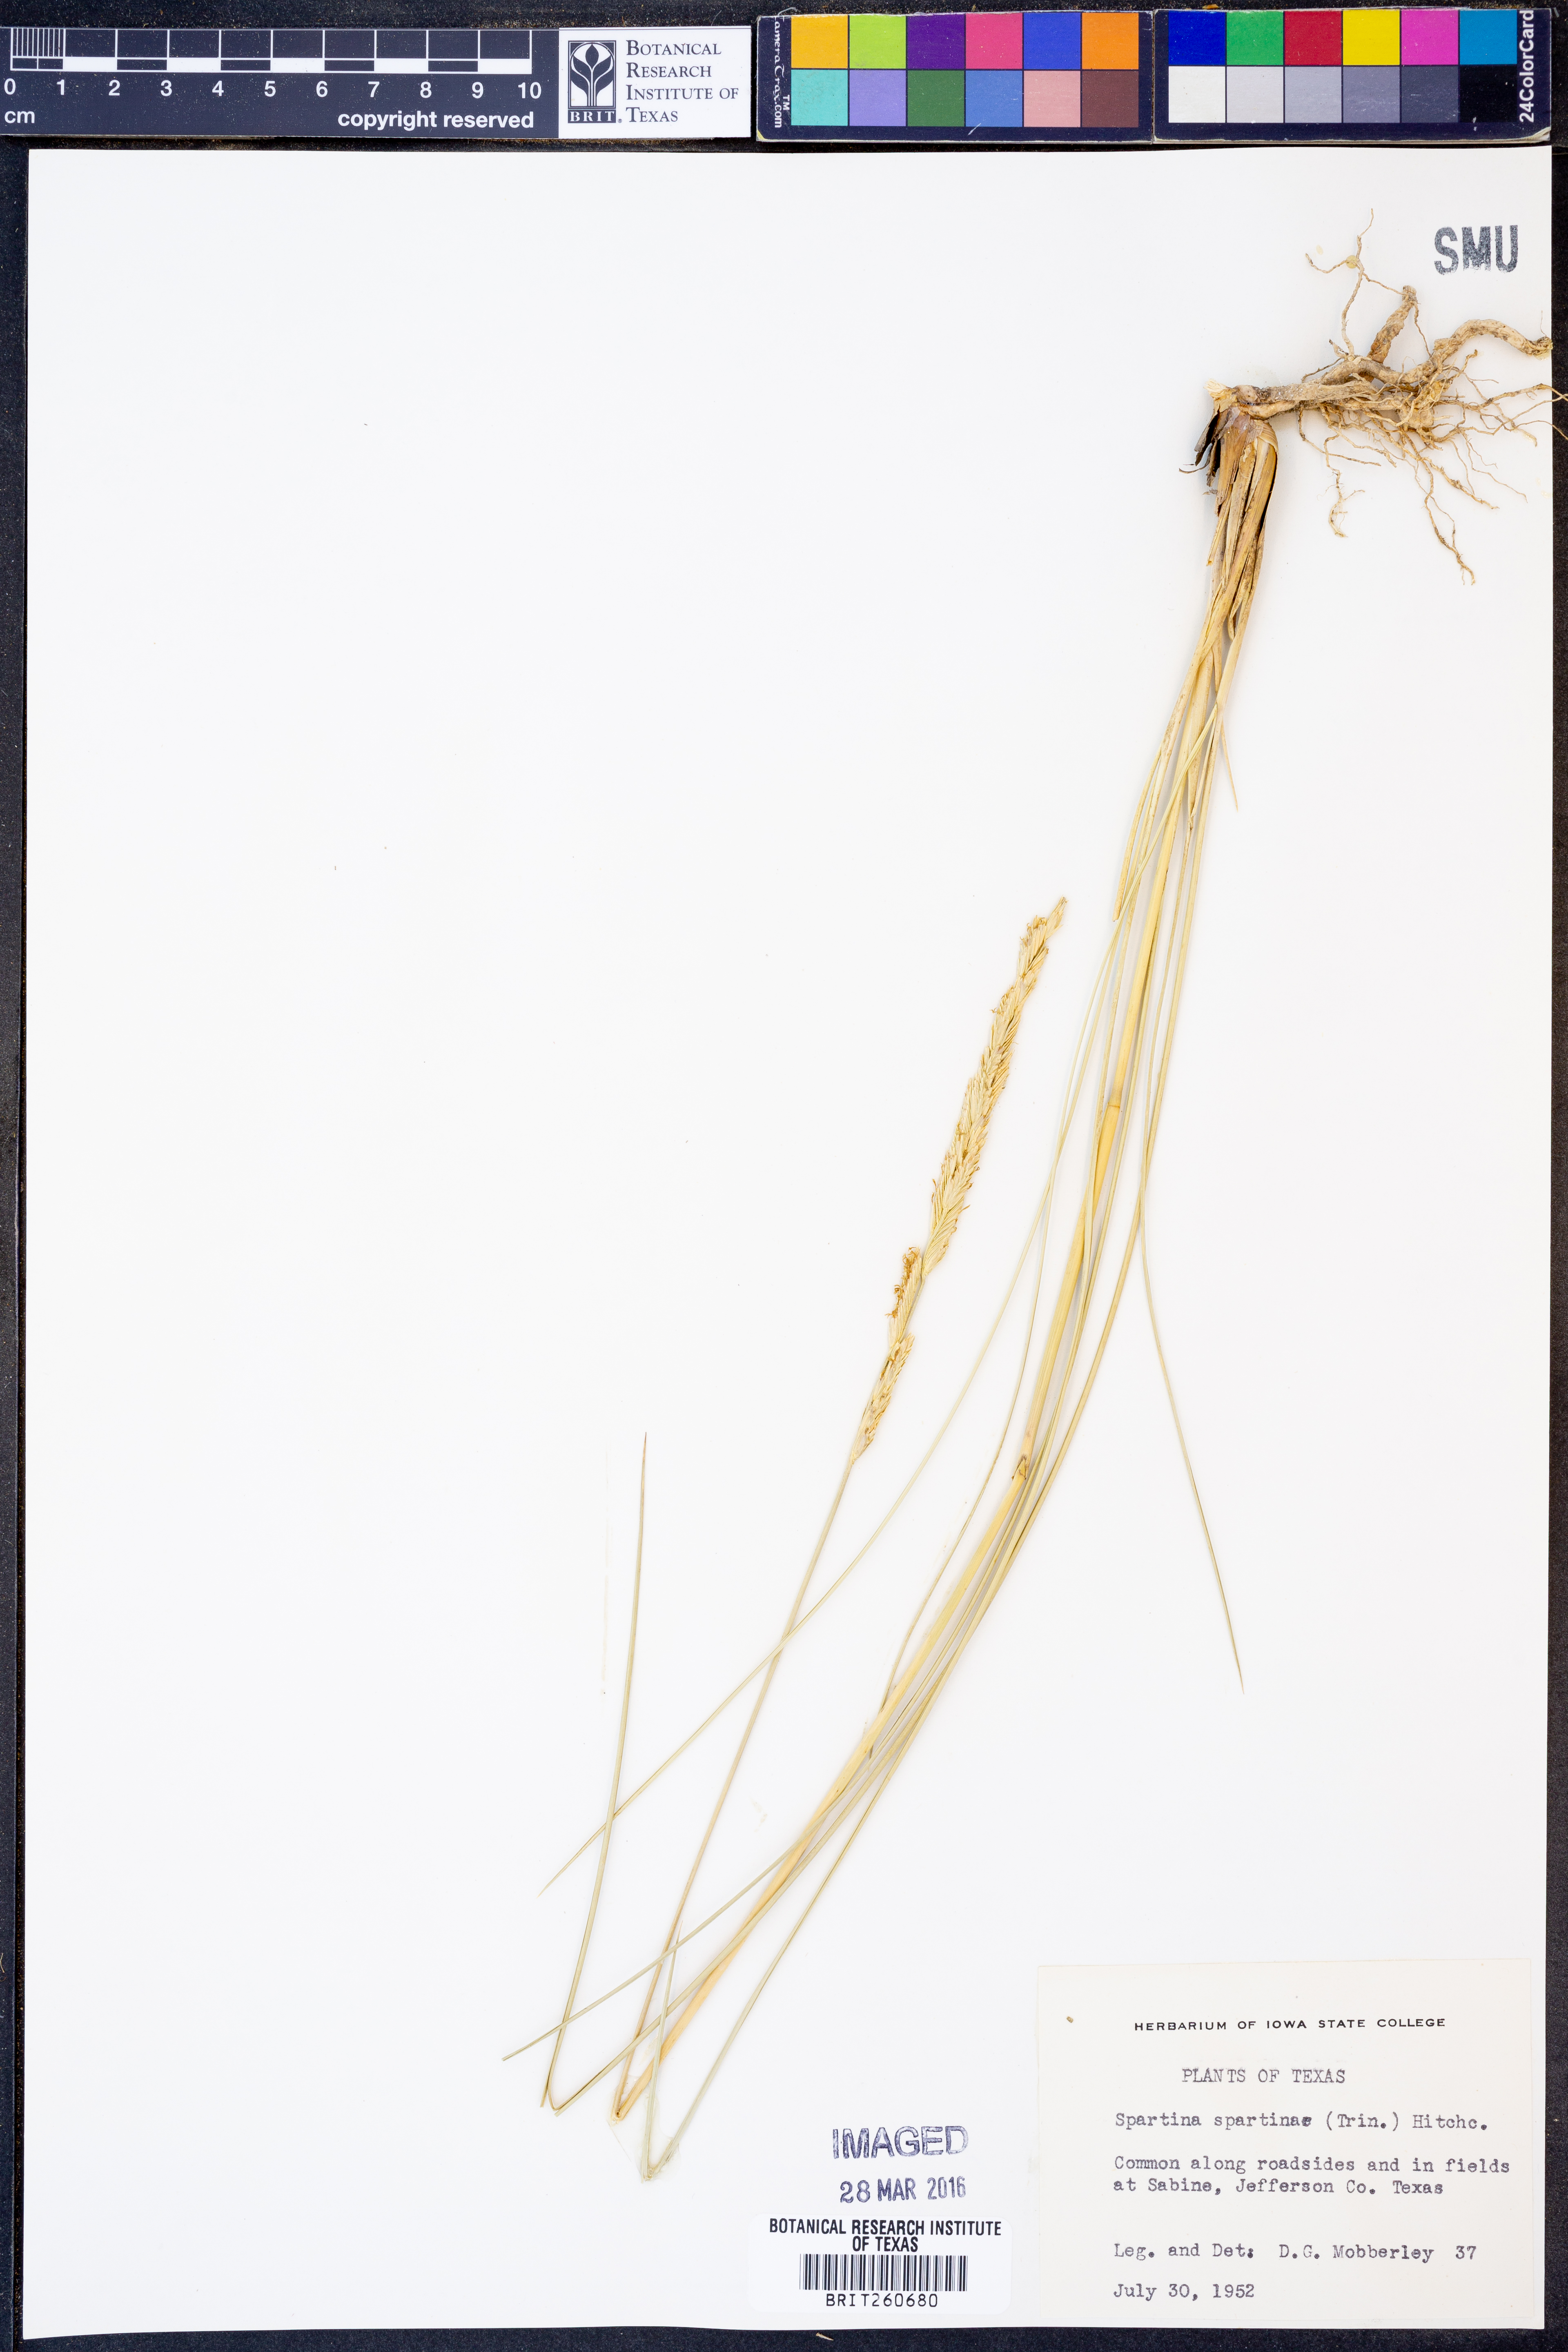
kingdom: Plantae
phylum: Tracheophyta
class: Liliopsida
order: Poales
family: Poaceae
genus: Sporobolus
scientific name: Sporobolus spartinae
